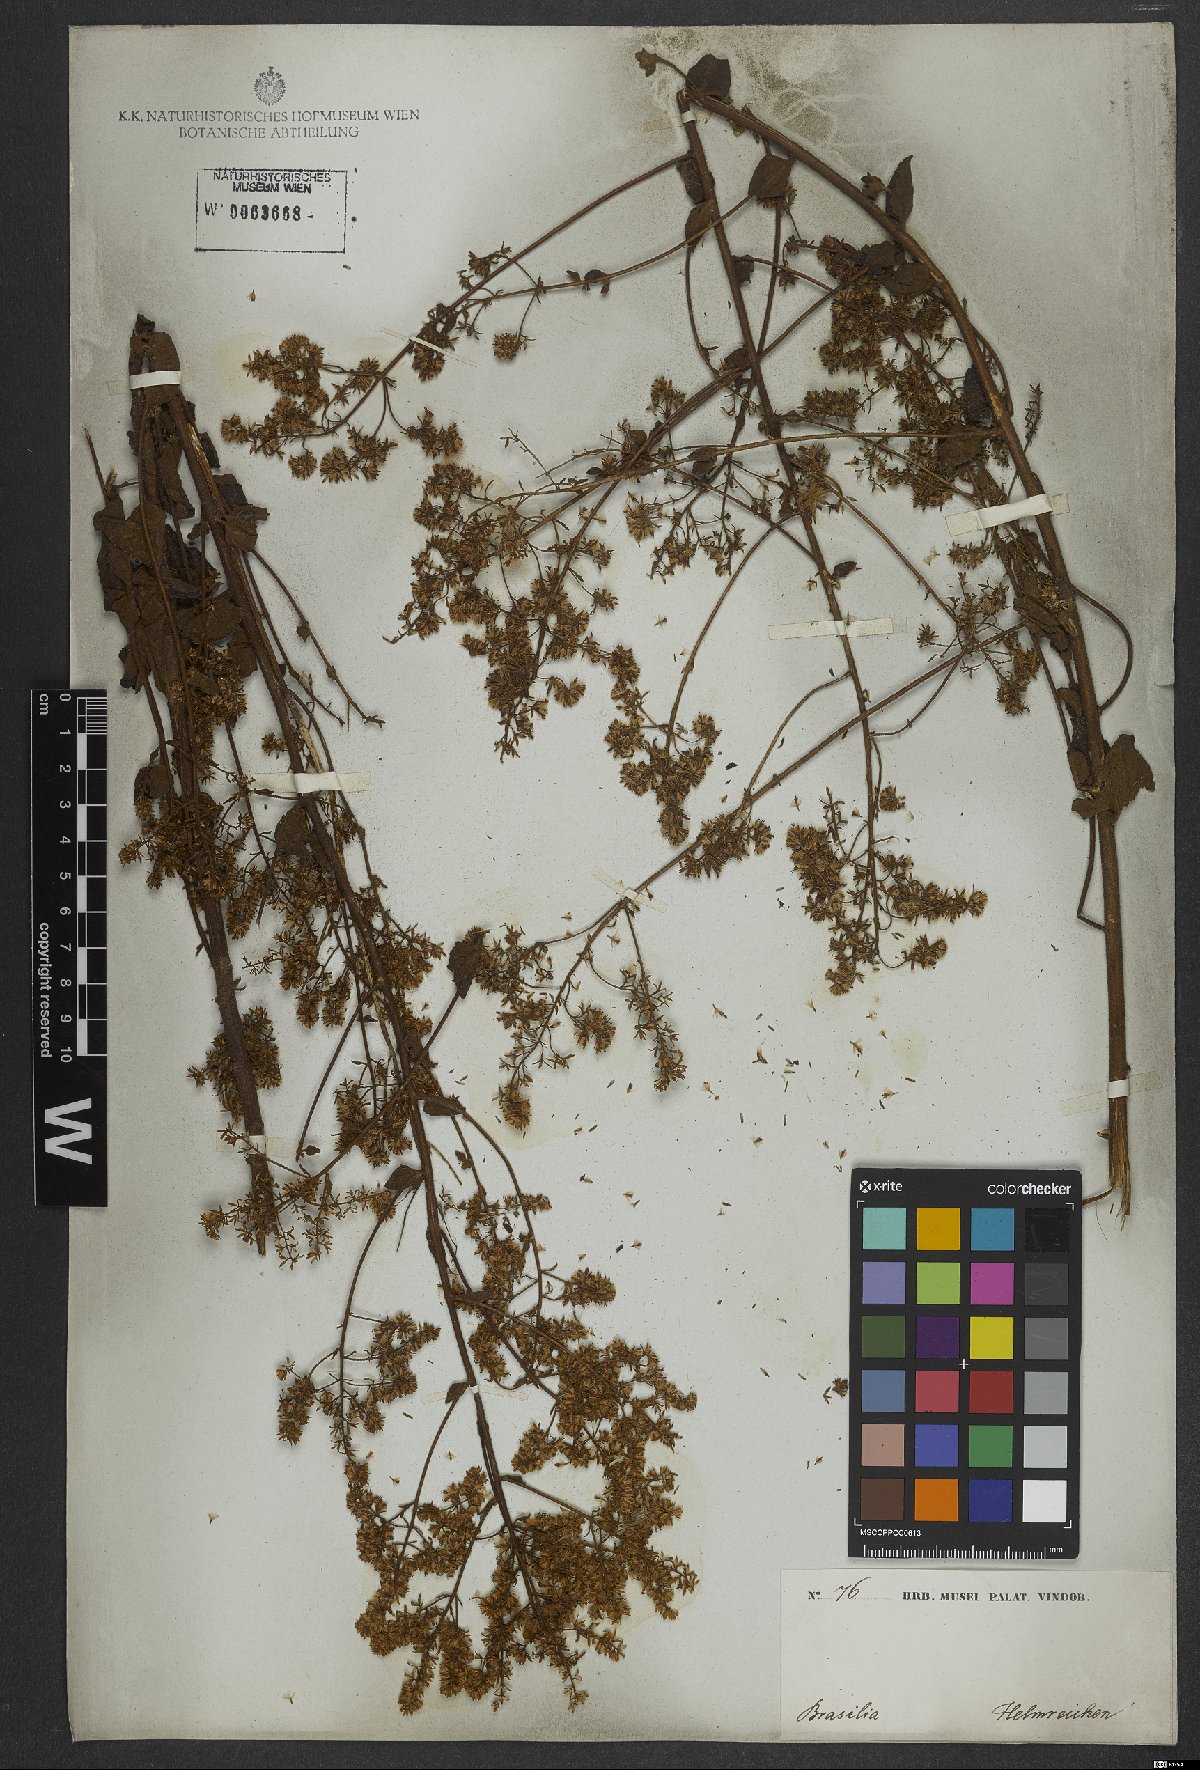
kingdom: Plantae
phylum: Tracheophyta
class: Magnoliopsida
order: Asterales
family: Asteraceae
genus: Mikania
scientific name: Mikania sessilifolia
